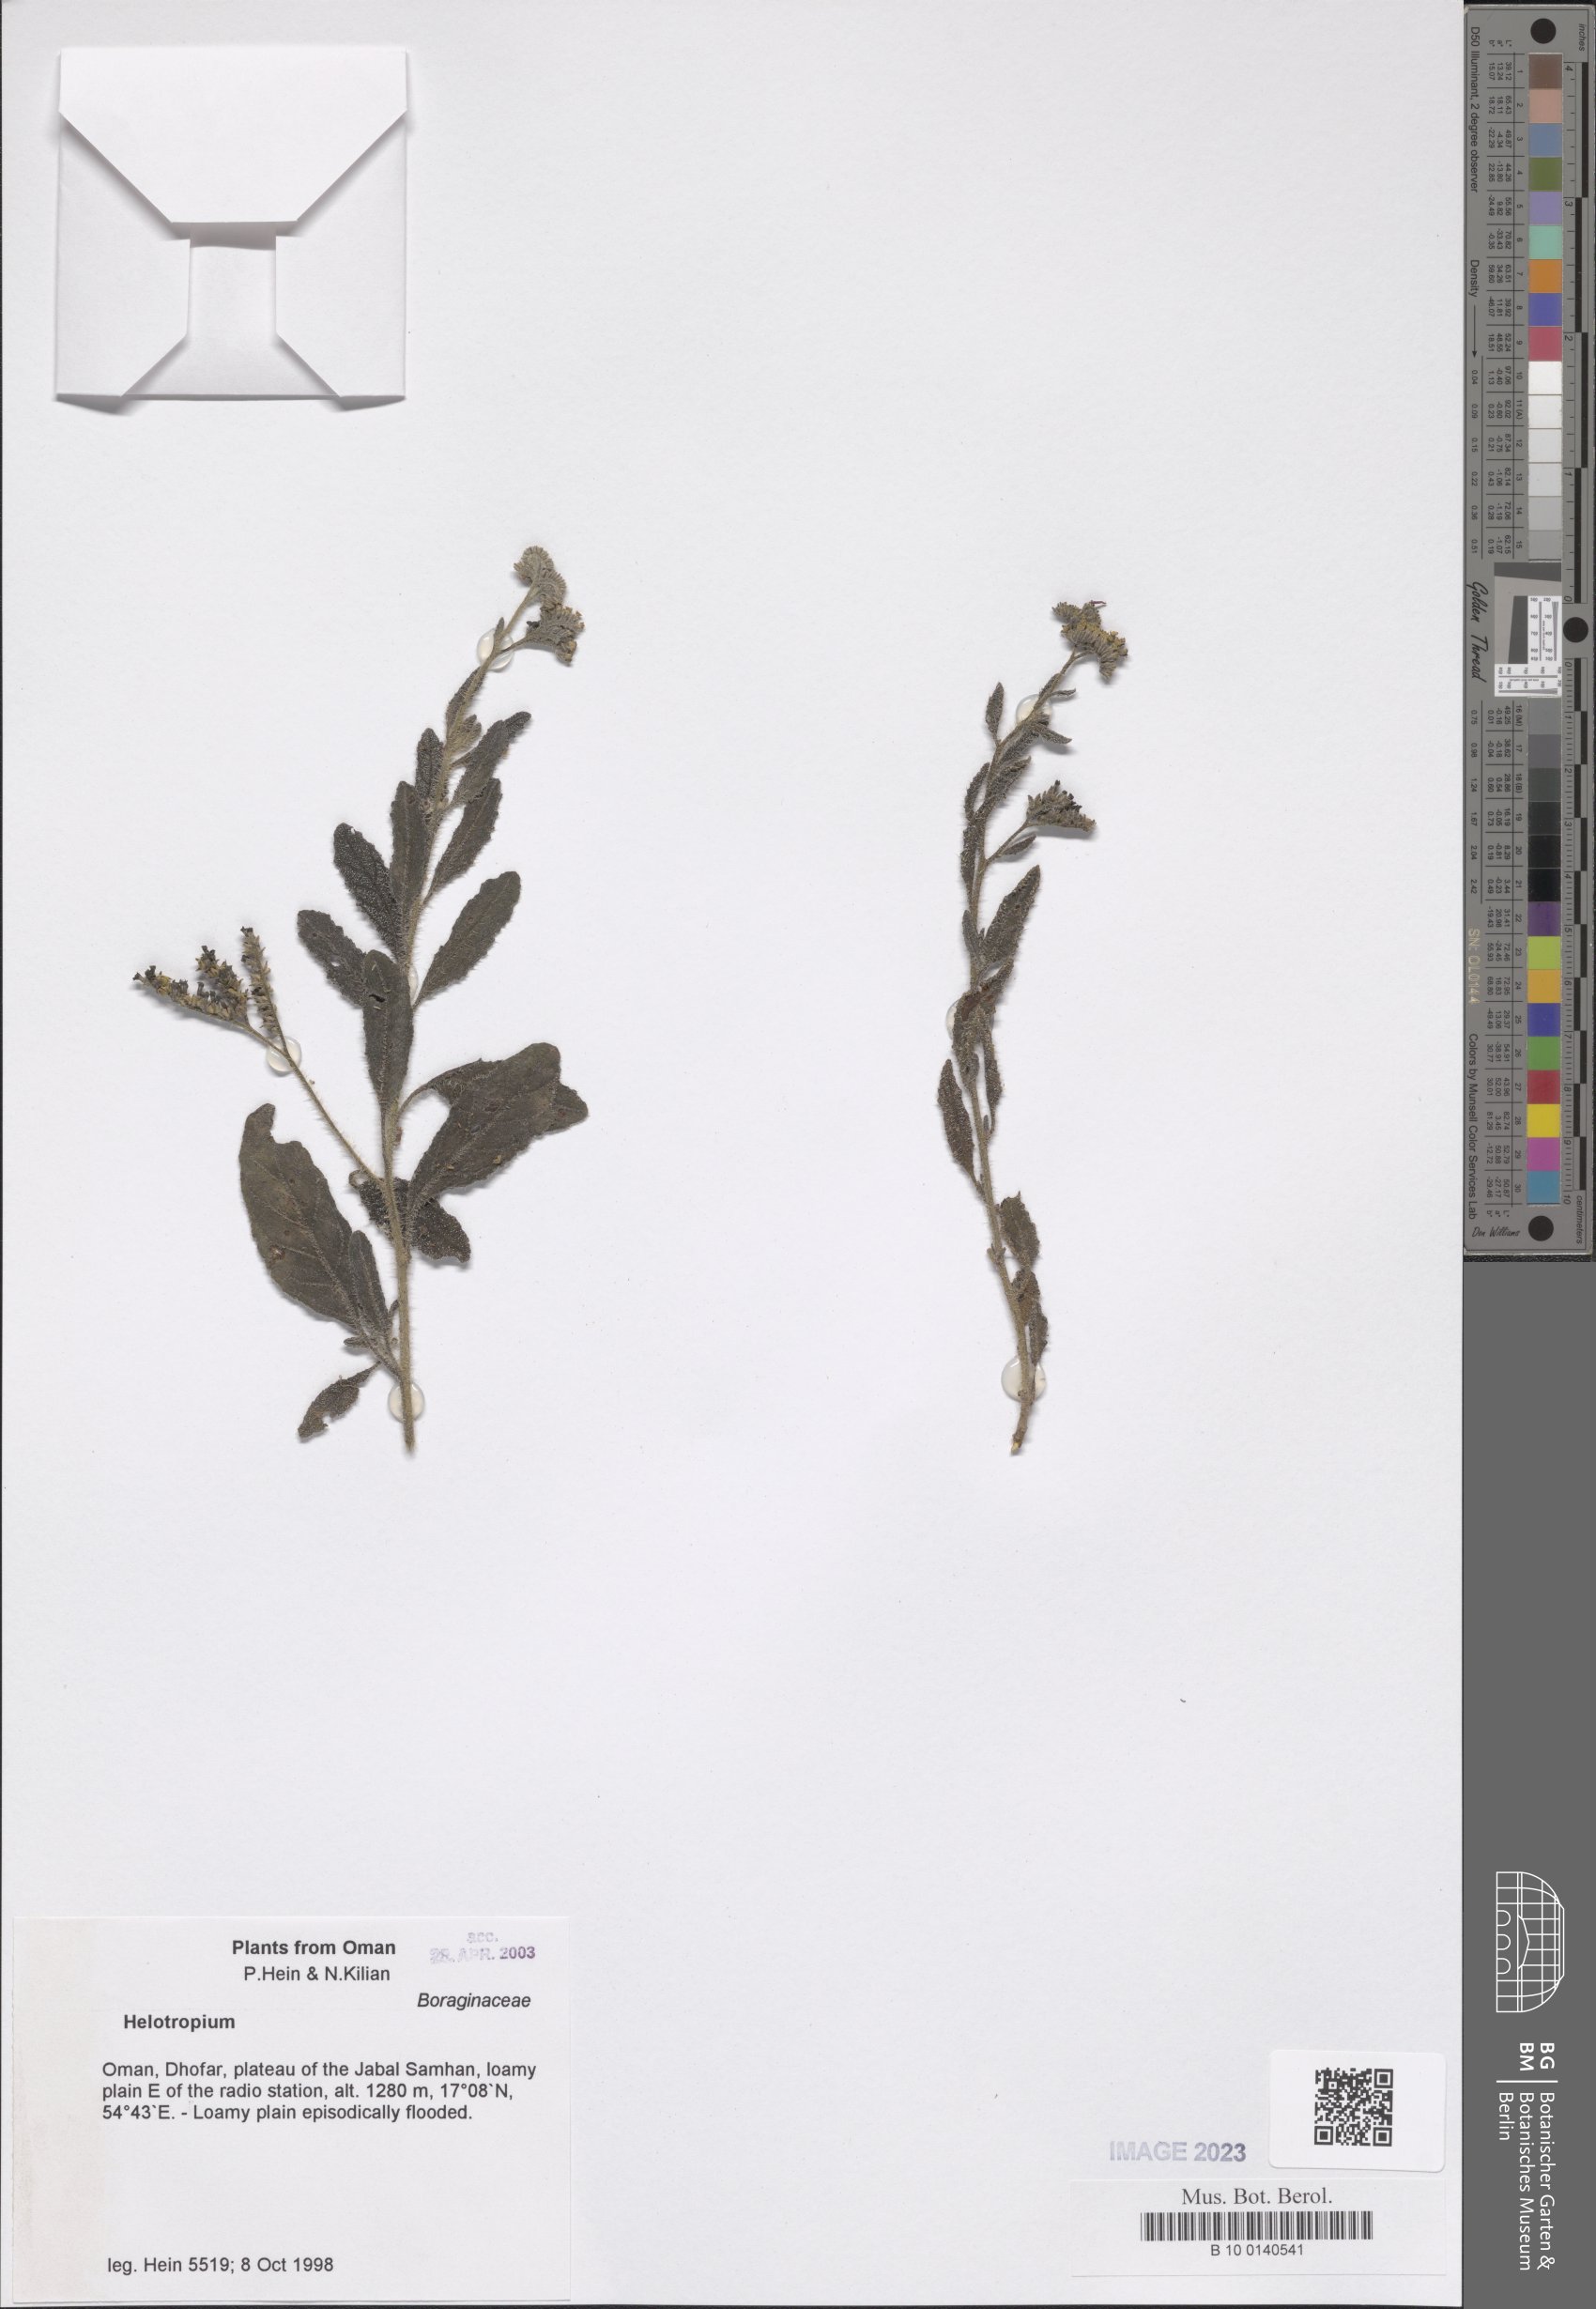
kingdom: Plantae
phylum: Tracheophyta
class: Magnoliopsida
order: Boraginales
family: Heliotropiaceae
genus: Heliotropium
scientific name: Heliotropium
